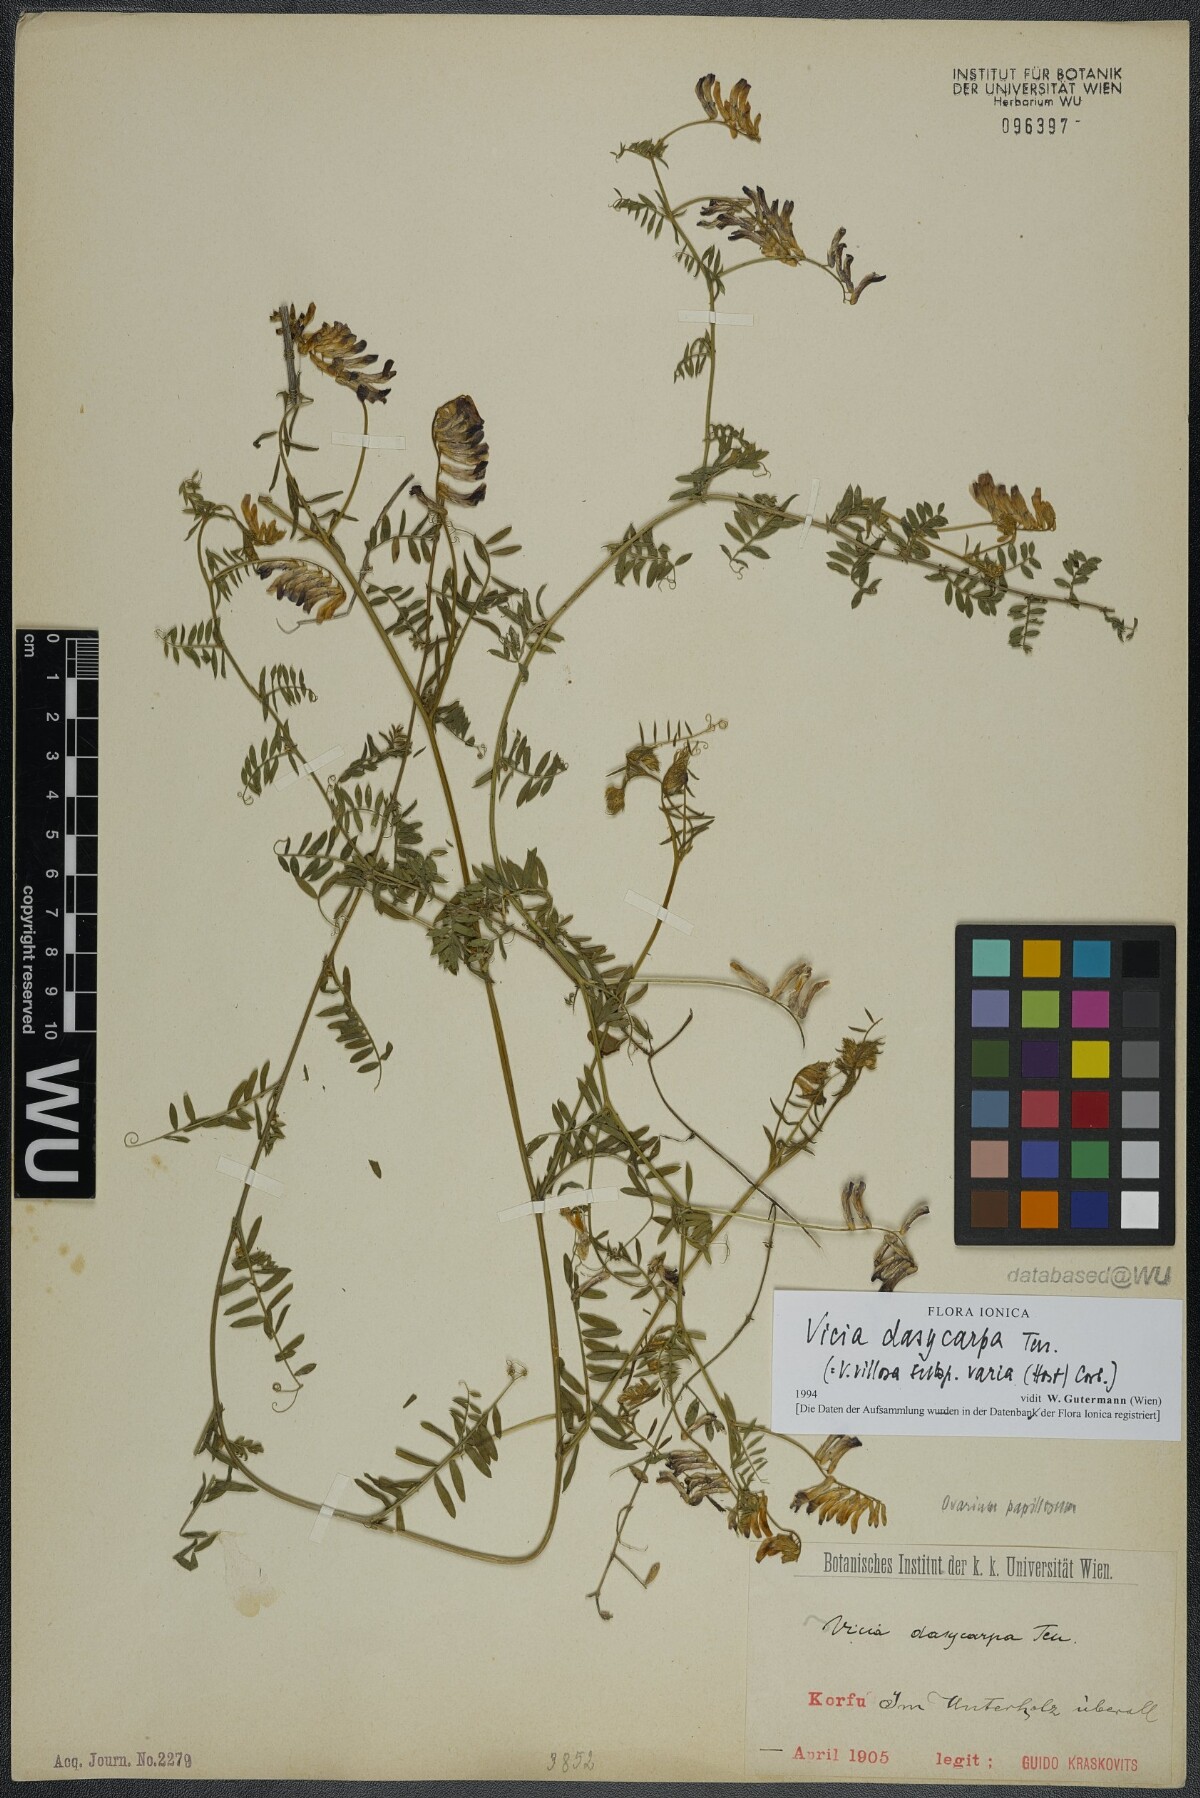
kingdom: Plantae
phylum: Tracheophyta
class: Magnoliopsida
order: Fabales
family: Fabaceae
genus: Vicia
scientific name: Vicia villosa
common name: Fodder vetch
